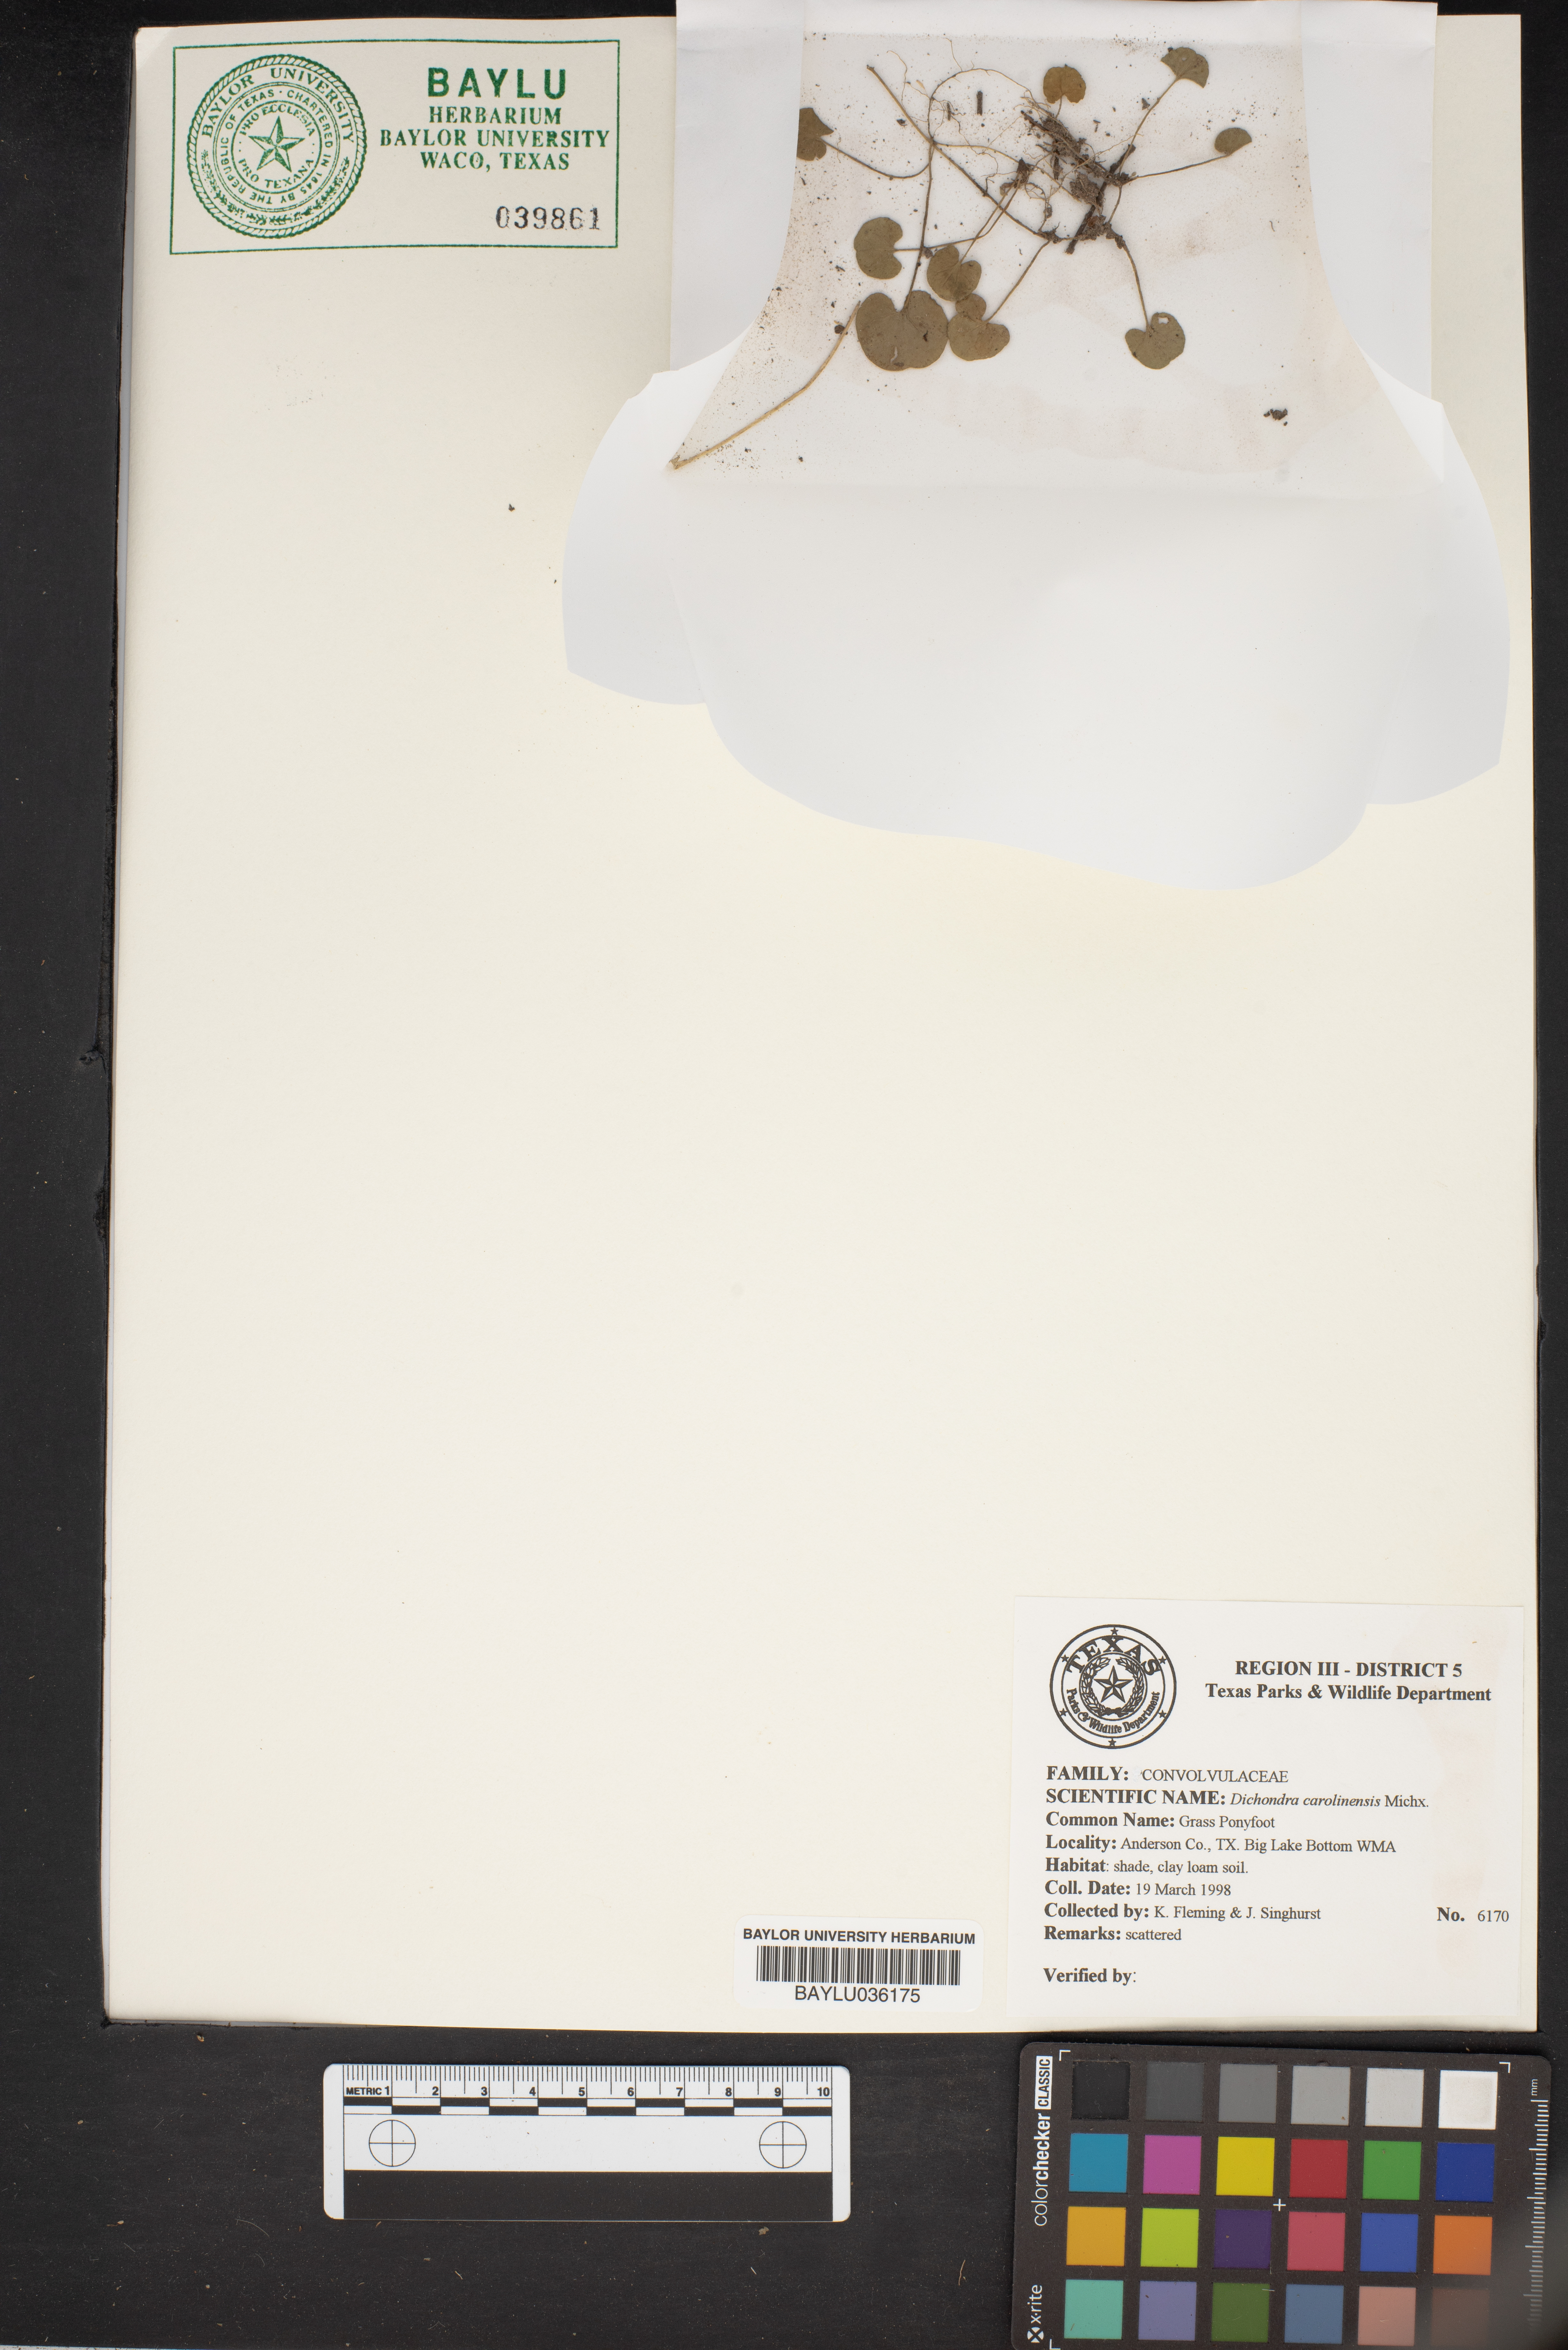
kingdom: Plantae
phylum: Tracheophyta
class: Magnoliopsida
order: Solanales
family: Convolvulaceae
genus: Dichondra
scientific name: Dichondra carolinensis
